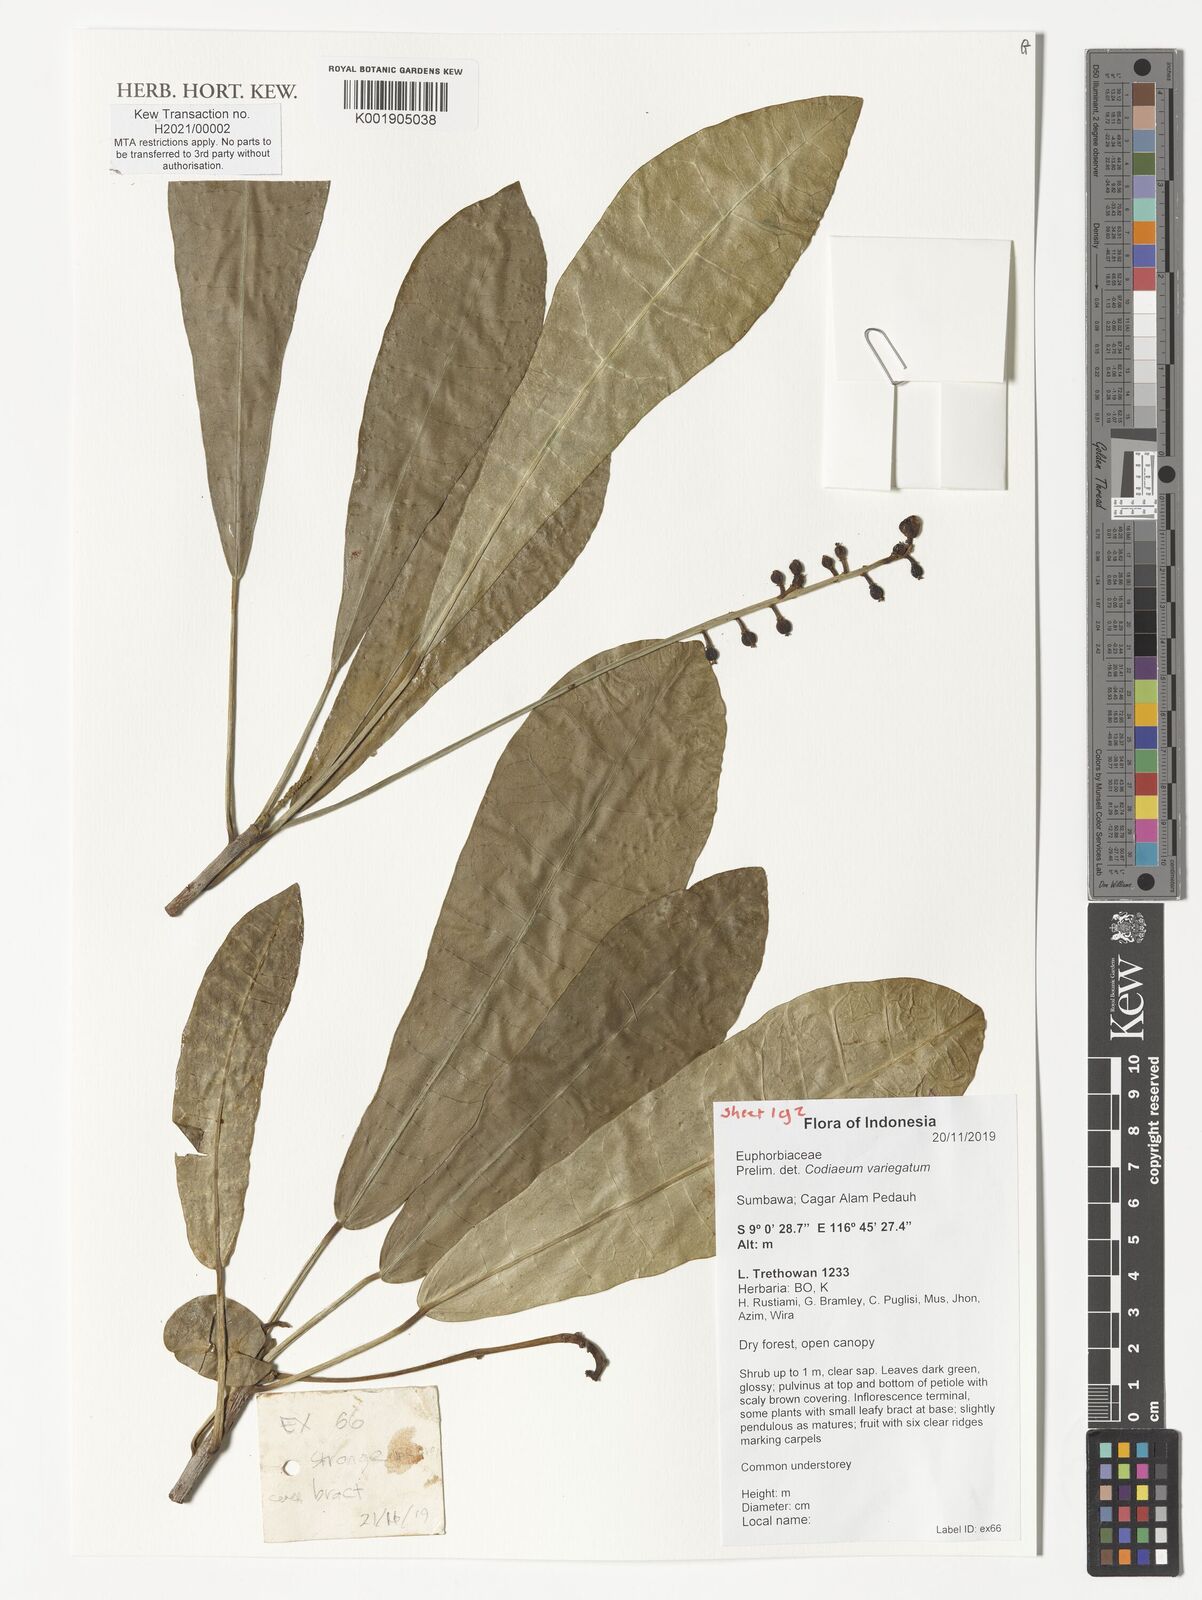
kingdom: Plantae
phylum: Tracheophyta
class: Magnoliopsida
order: Malpighiales
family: Euphorbiaceae
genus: Codiaeum
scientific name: Codiaeum variegatum
